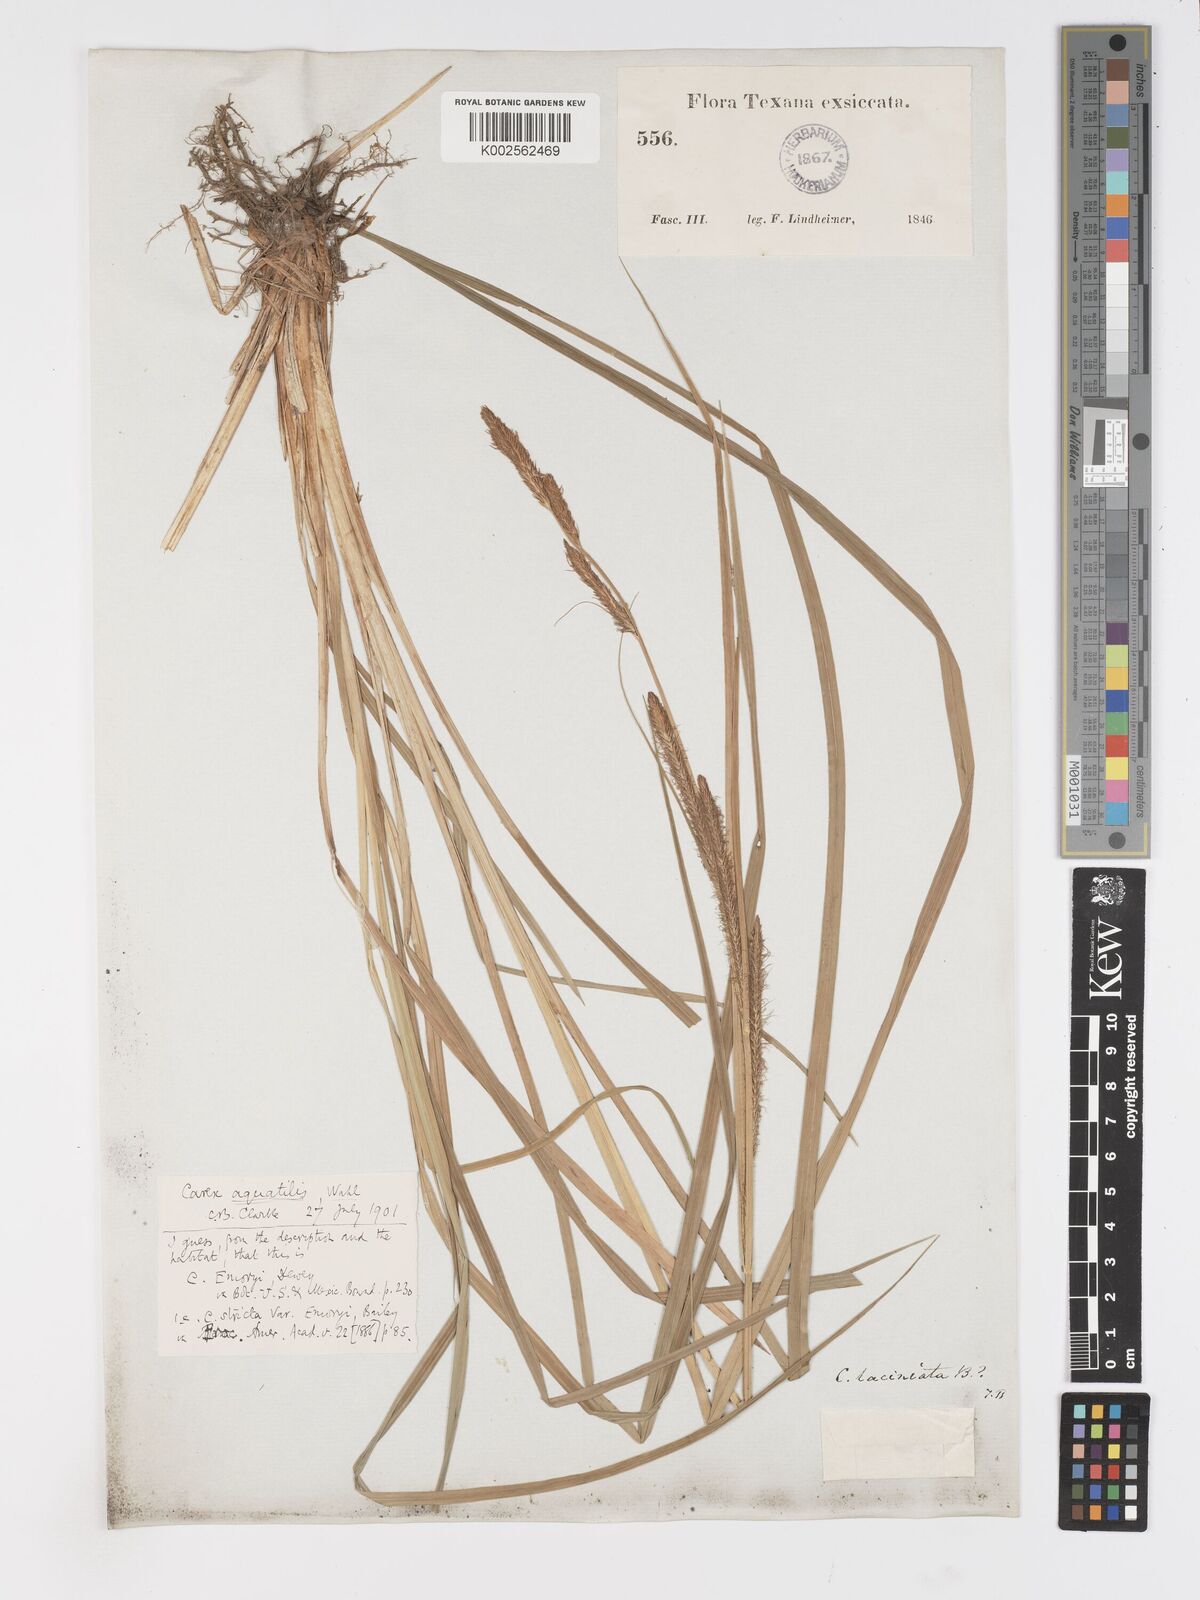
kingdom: Plantae
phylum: Tracheophyta
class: Liliopsida
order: Poales
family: Cyperaceae
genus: Carex
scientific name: Carex
